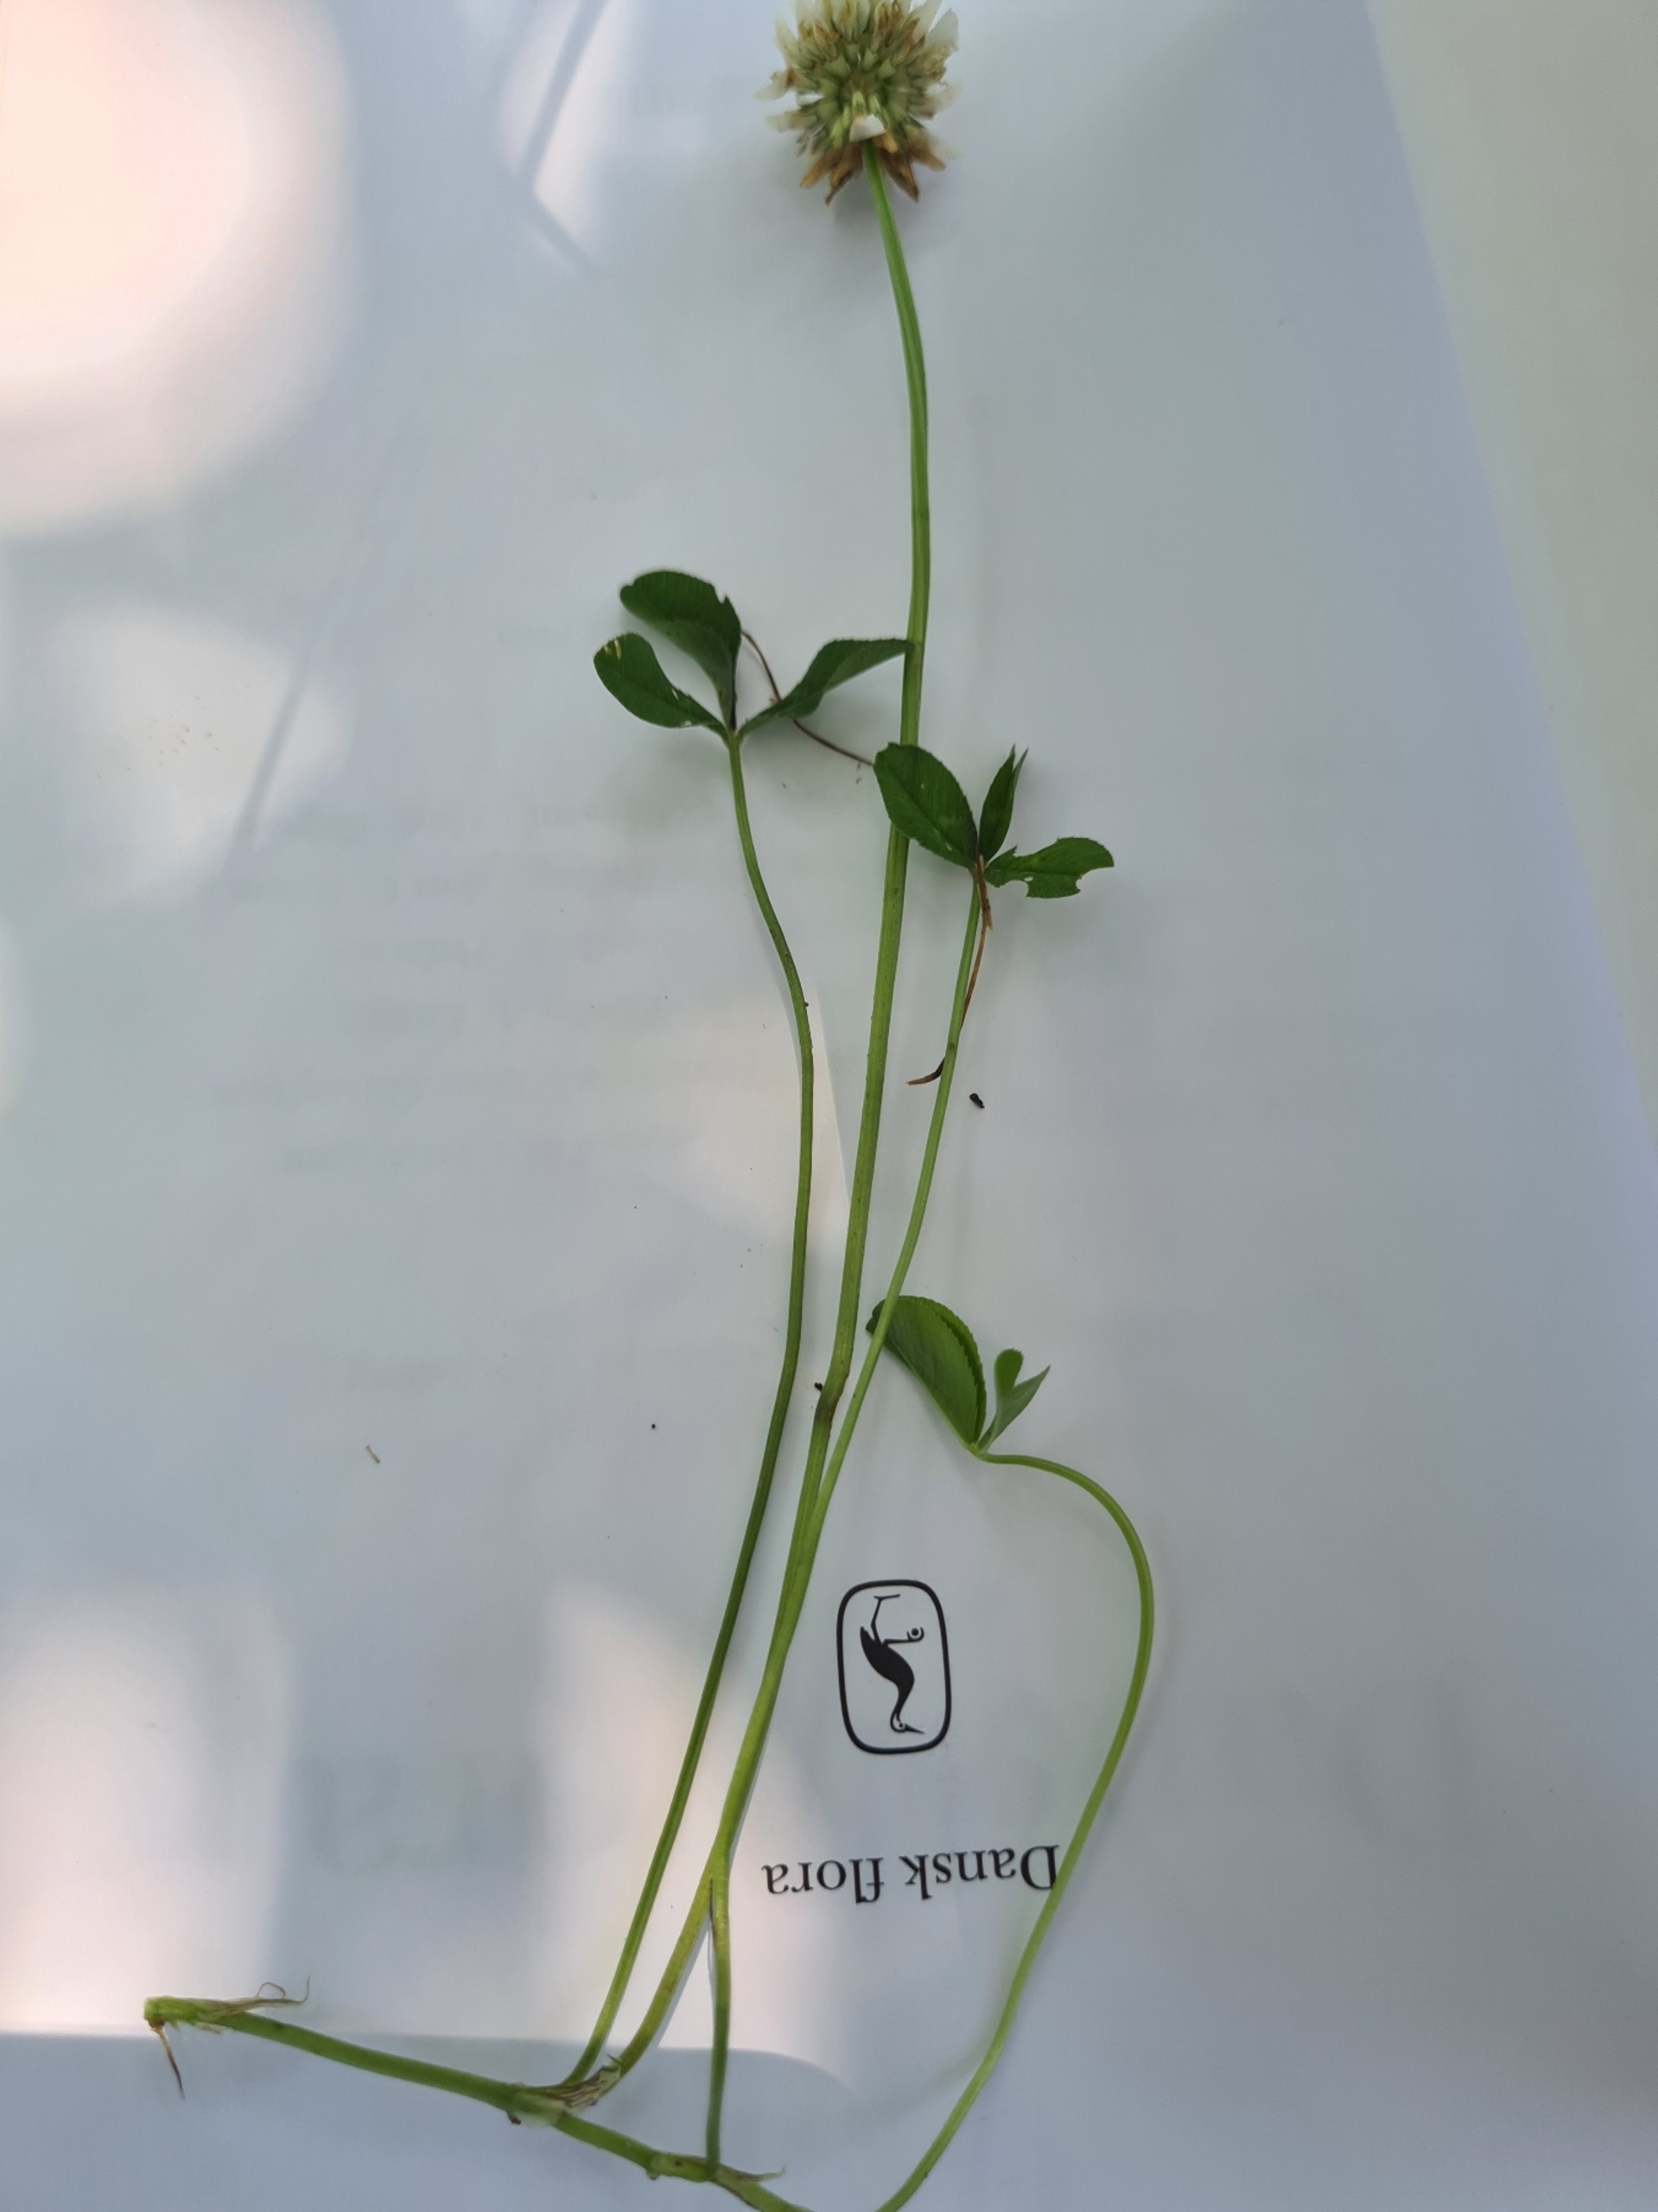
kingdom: Plantae
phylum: Tracheophyta
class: Magnoliopsida
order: Fabales
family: Fabaceae
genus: Trifolium
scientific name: Trifolium repens
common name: Hvid-kløver
